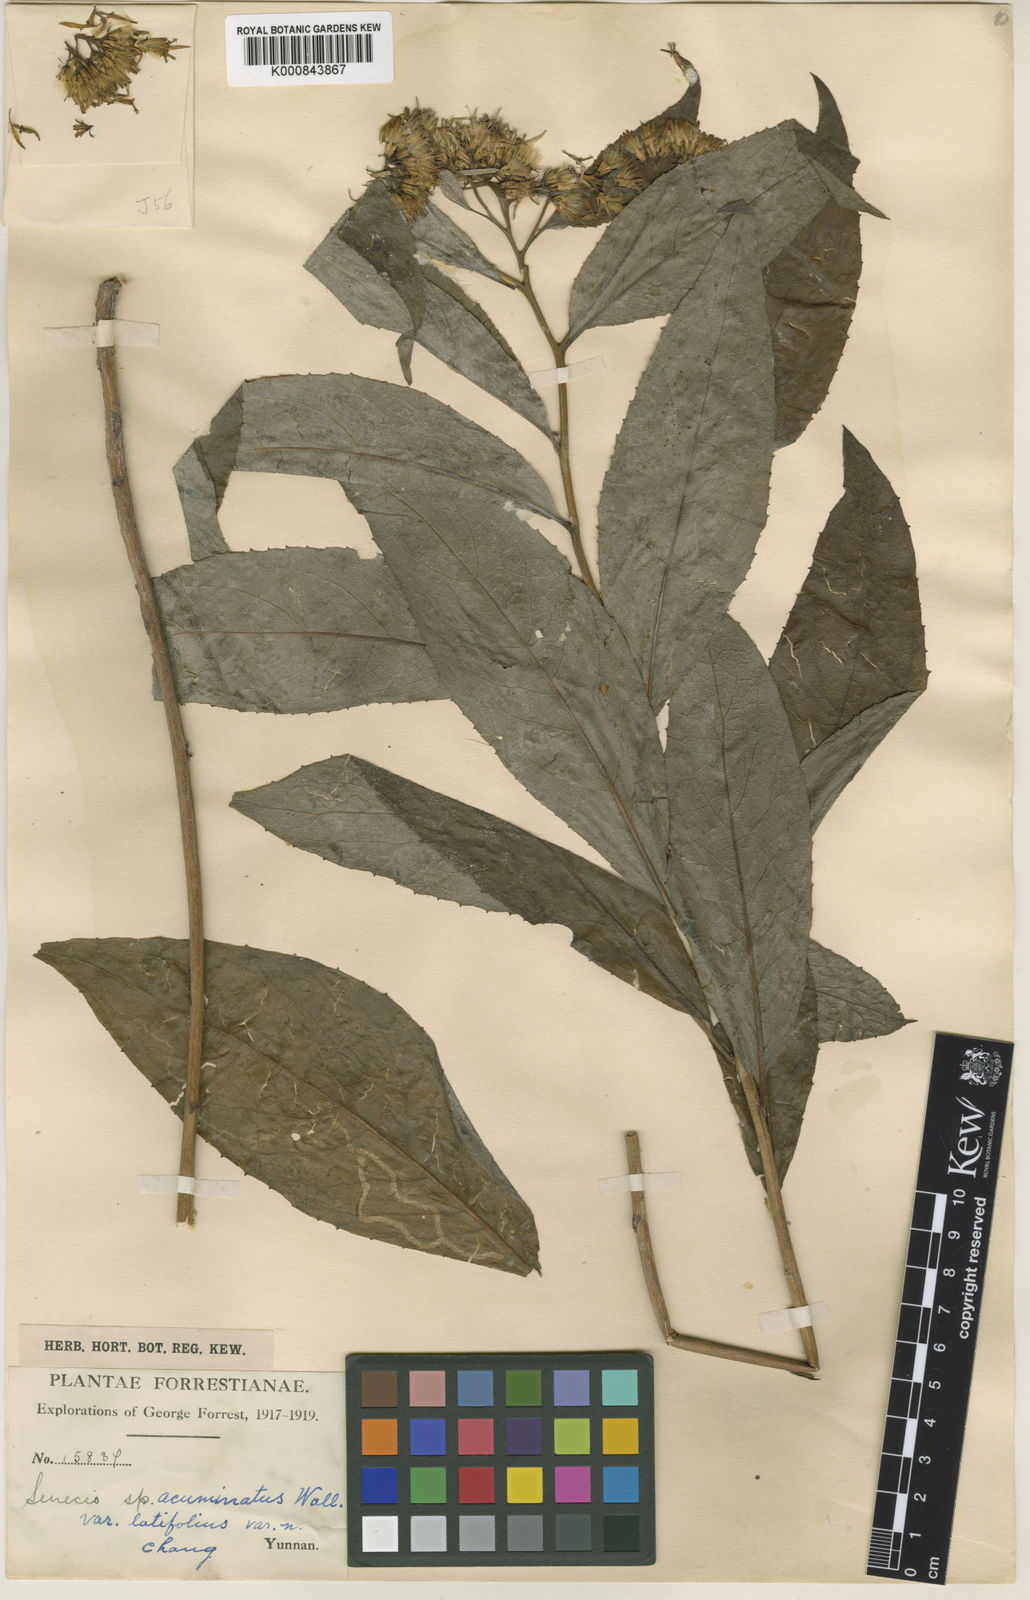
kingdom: Plantae
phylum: Tracheophyta
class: Magnoliopsida
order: Asterales
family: Asteraceae
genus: Synotis
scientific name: Synotis calocephala
